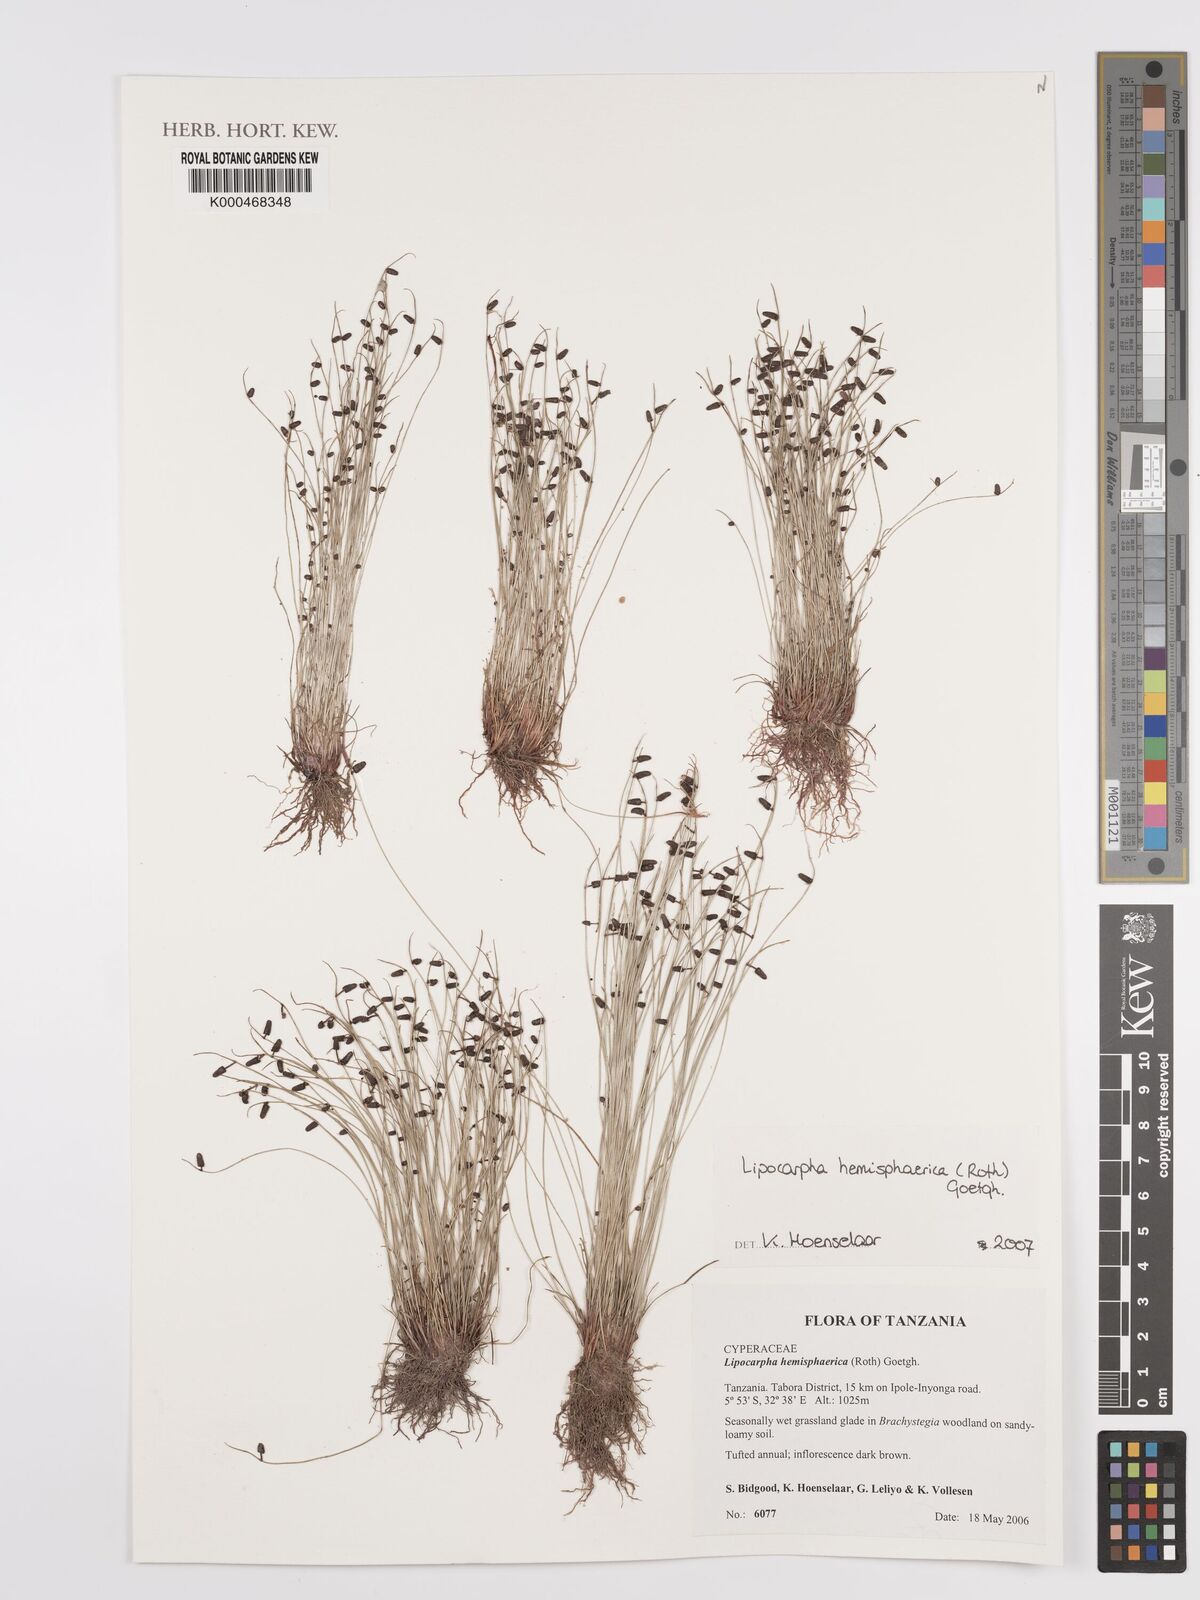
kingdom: Plantae
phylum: Tracheophyta
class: Liliopsida
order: Poales
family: Cyperaceae
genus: Cyperus
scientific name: Cyperus isolepis
